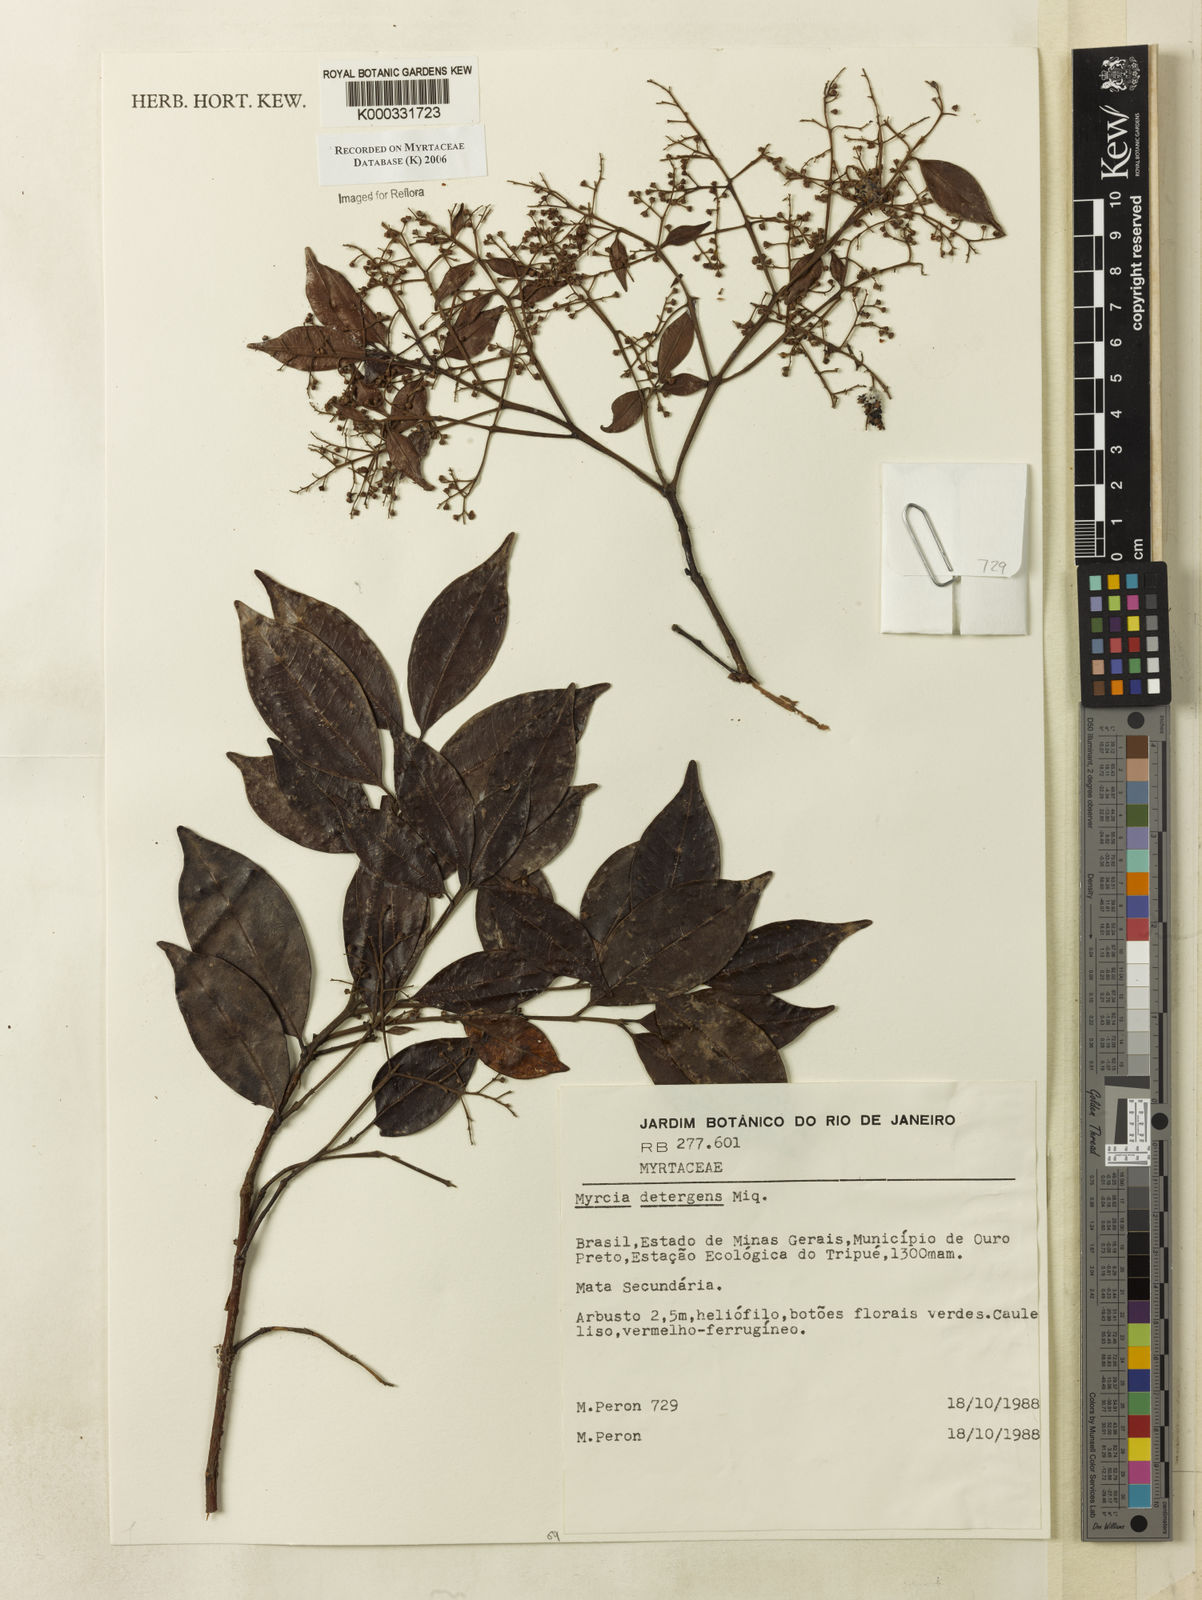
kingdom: Plantae
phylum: Tracheophyta
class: Magnoliopsida
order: Myrtales
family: Myrtaceae
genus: Myrcia
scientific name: Myrcia amazonica
